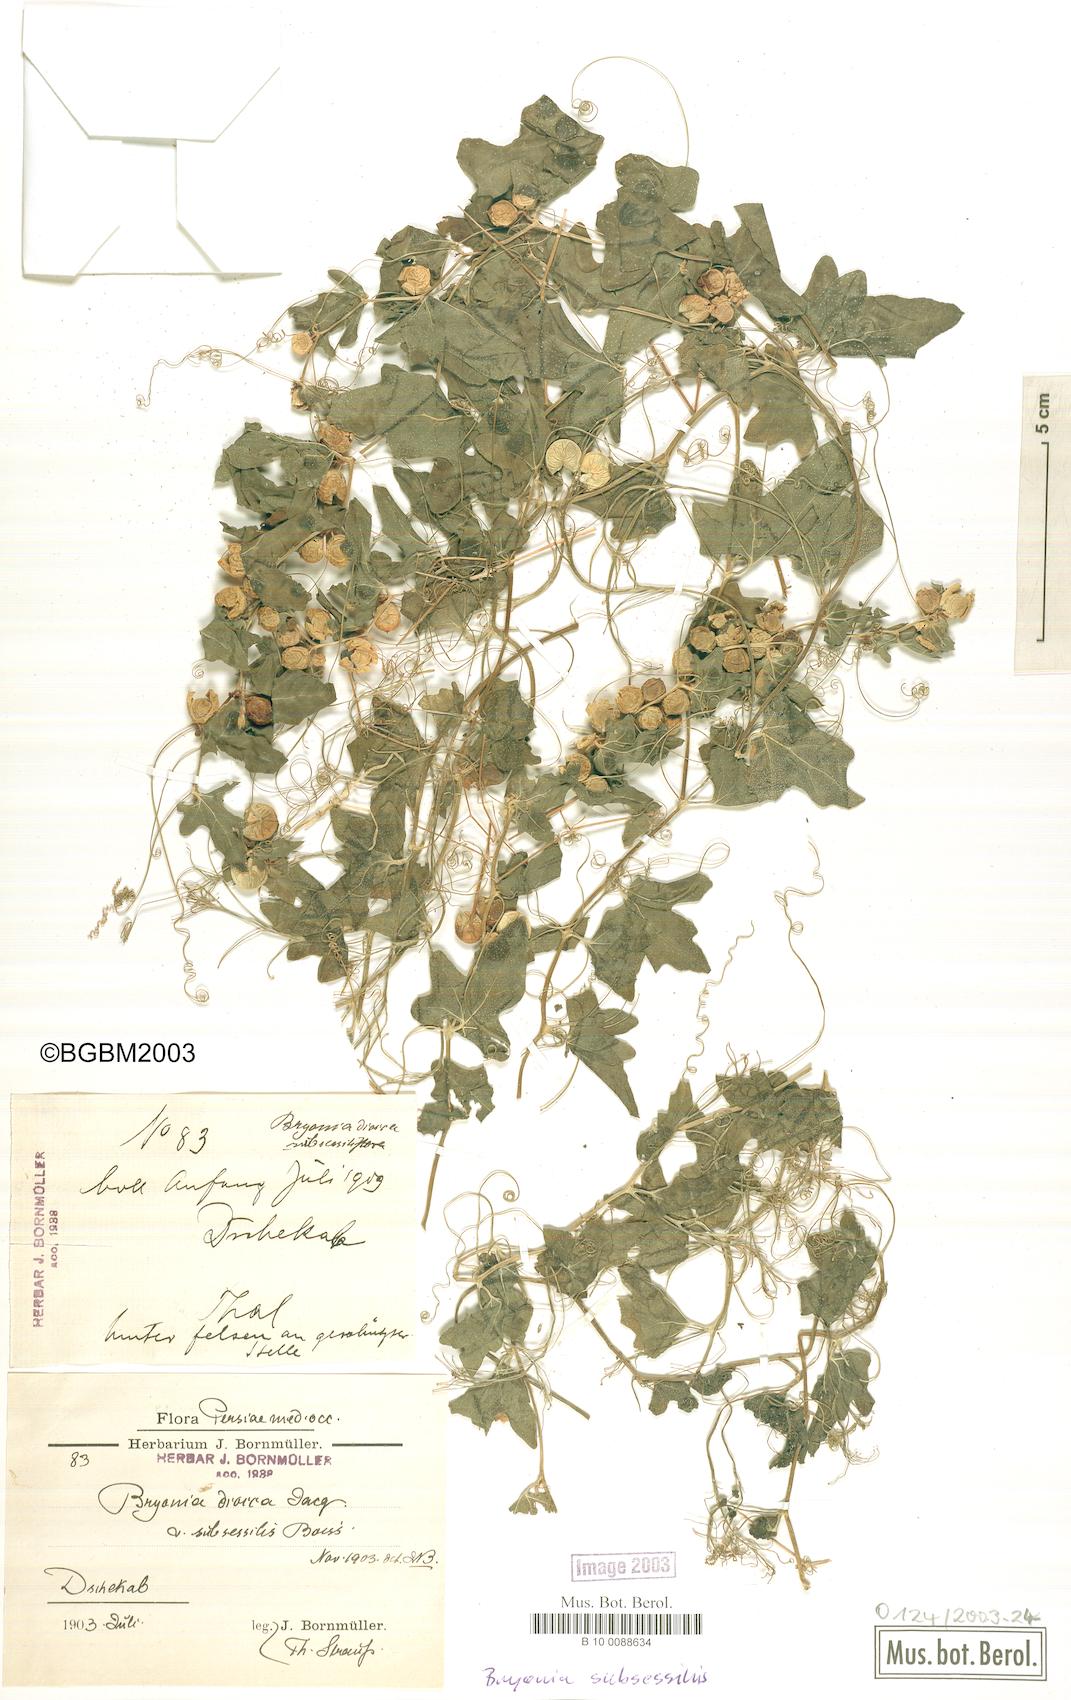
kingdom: Plantae
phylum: Tracheophyta
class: Magnoliopsida
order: Cucurbitales
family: Cucurbitaceae
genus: Bryonia
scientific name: Bryonia multiflora
